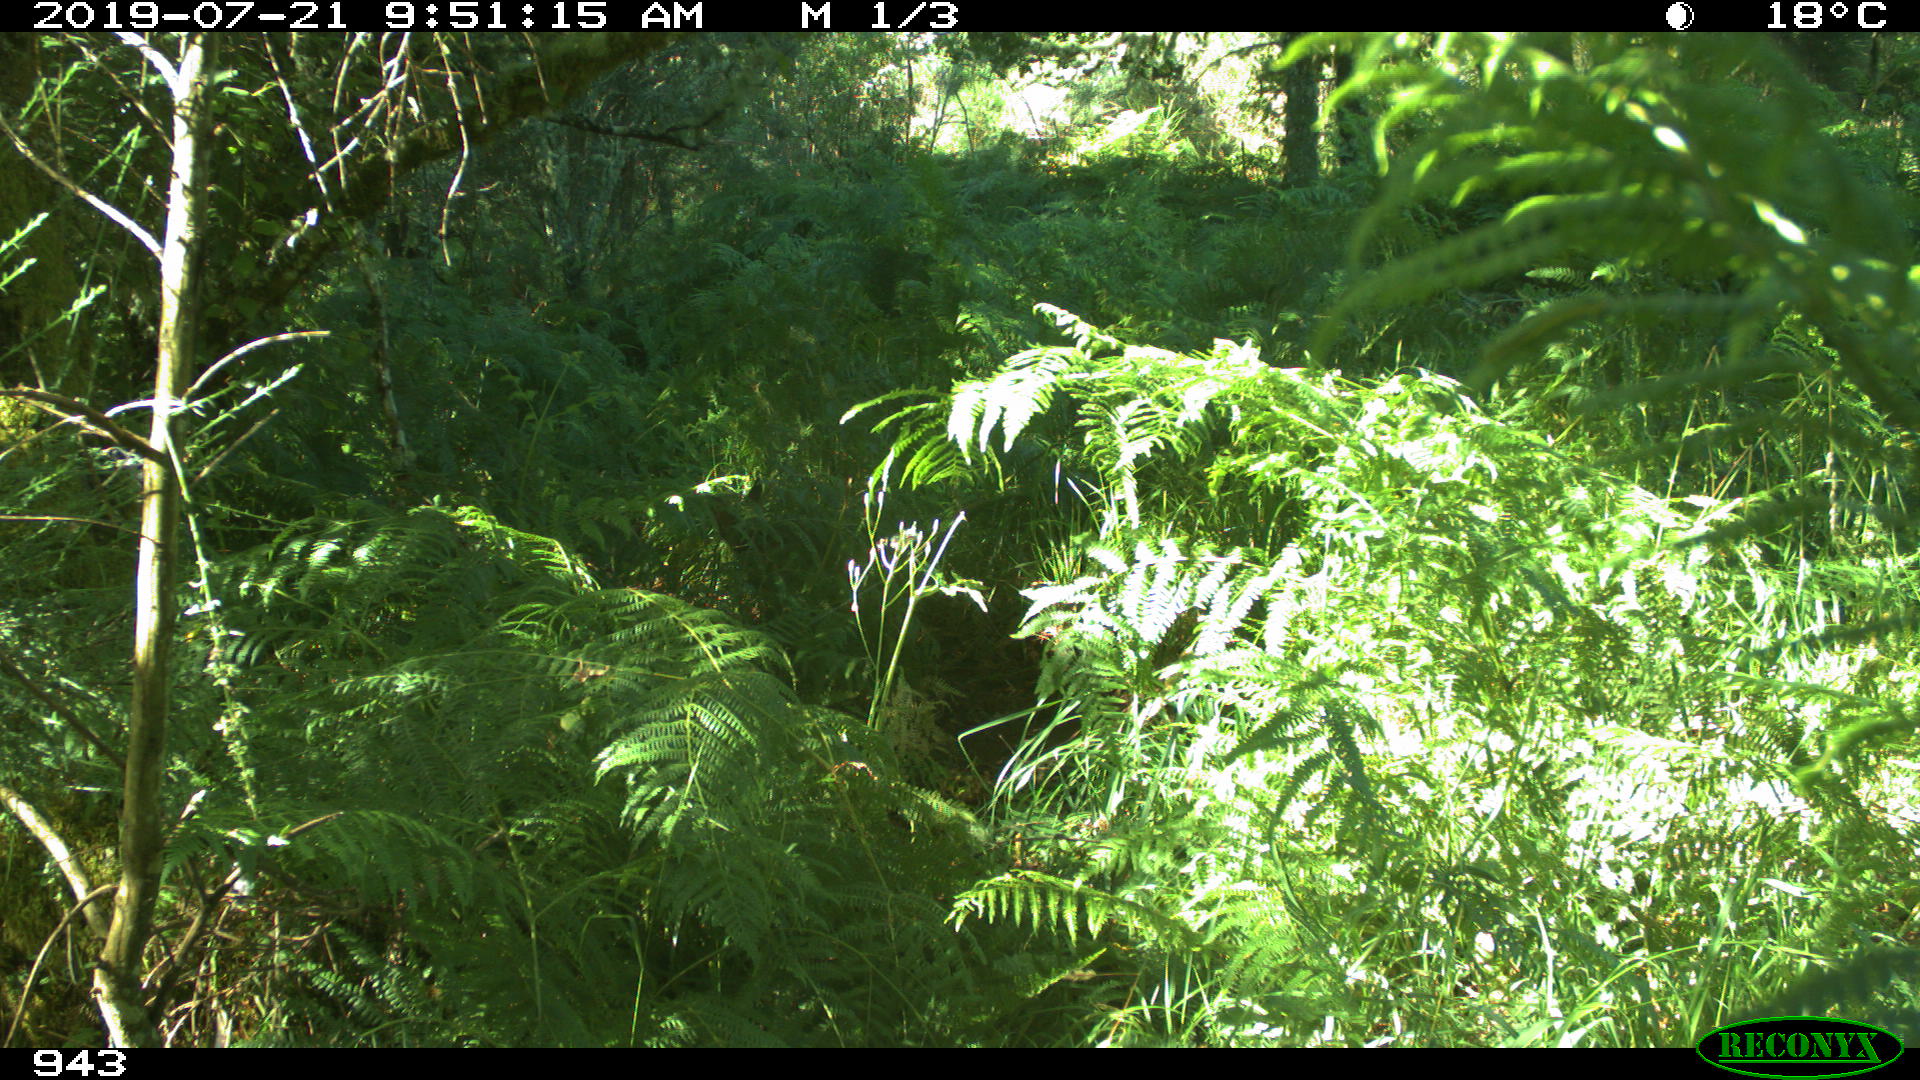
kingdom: Animalia
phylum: Chordata
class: Mammalia
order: Carnivora
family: Canidae
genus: Vulpes
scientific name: Vulpes vulpes
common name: Red fox
